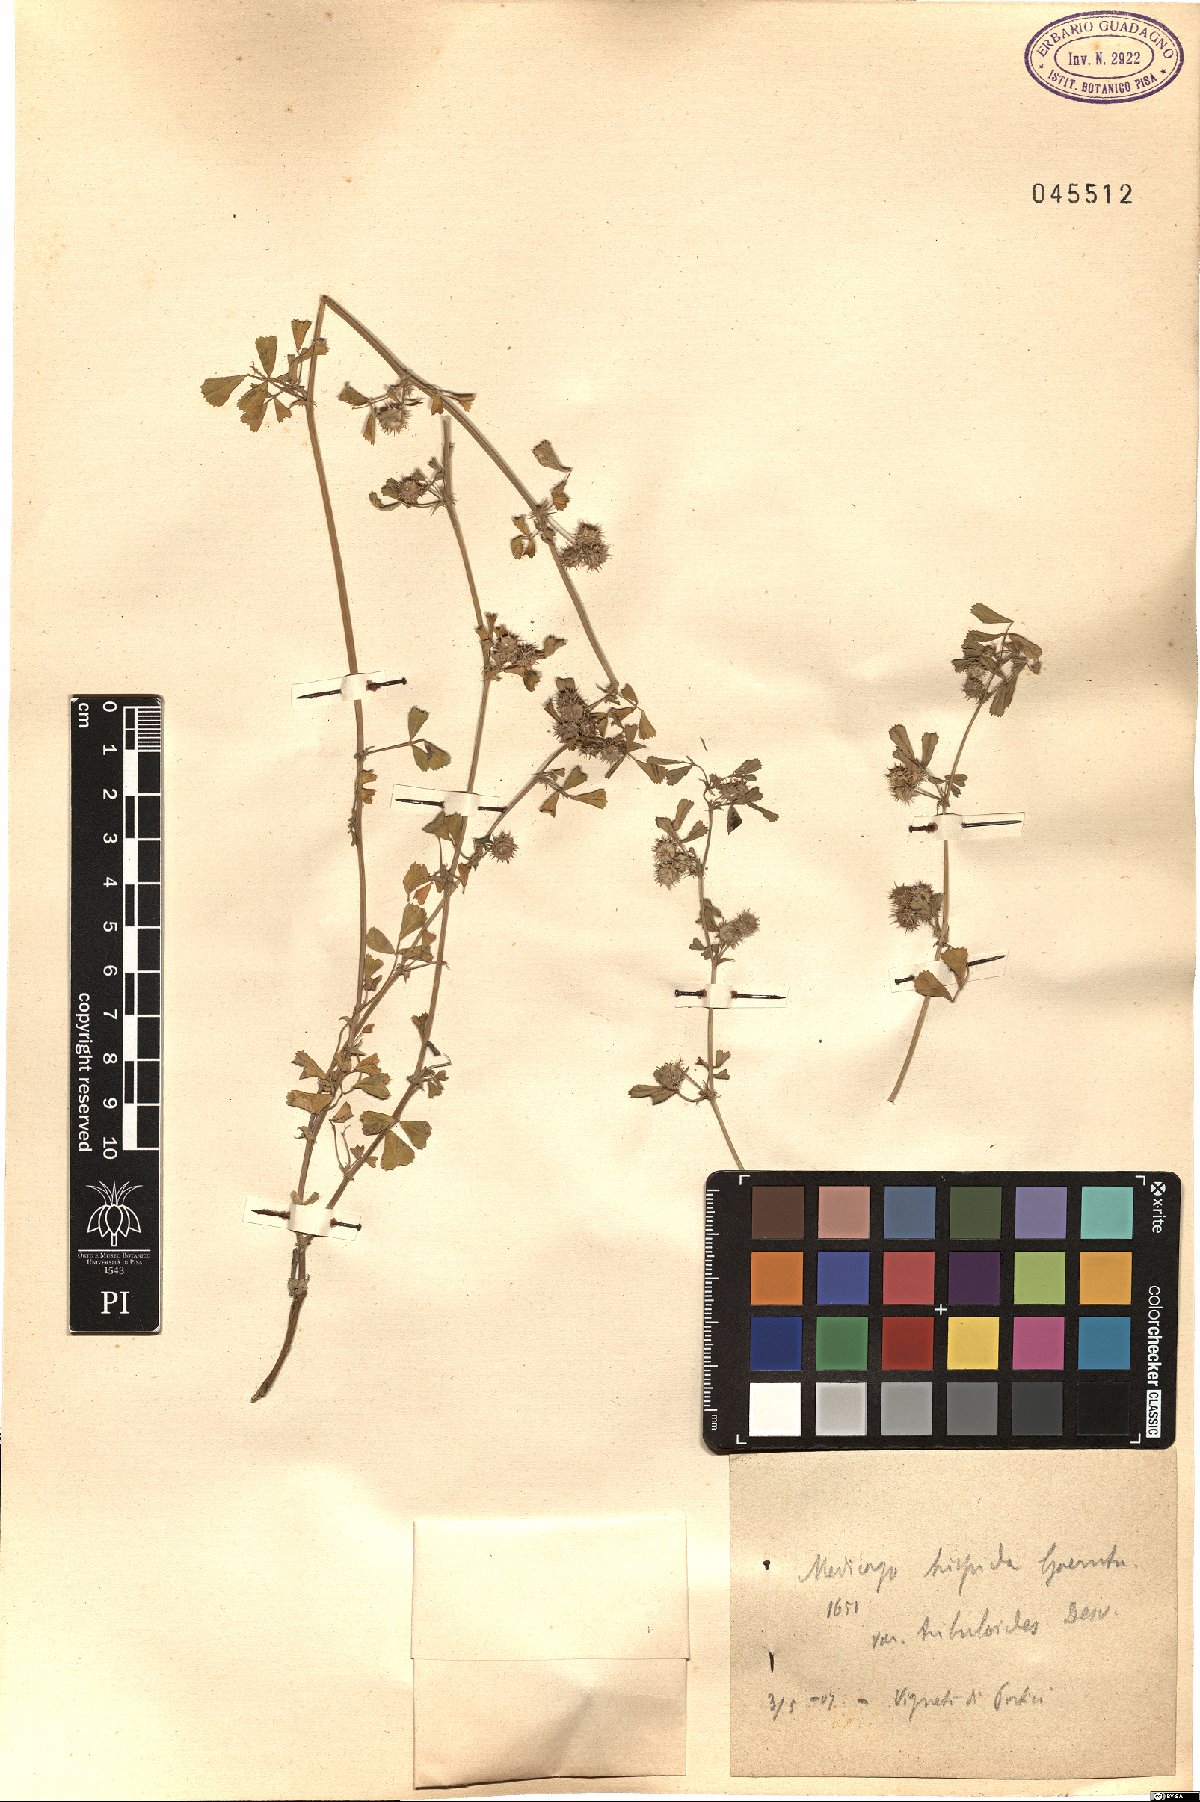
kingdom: Plantae
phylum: Tracheophyta
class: Magnoliopsida
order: Fabales
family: Fabaceae
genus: Medicago
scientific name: Medicago polymorpha
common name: Burclover
